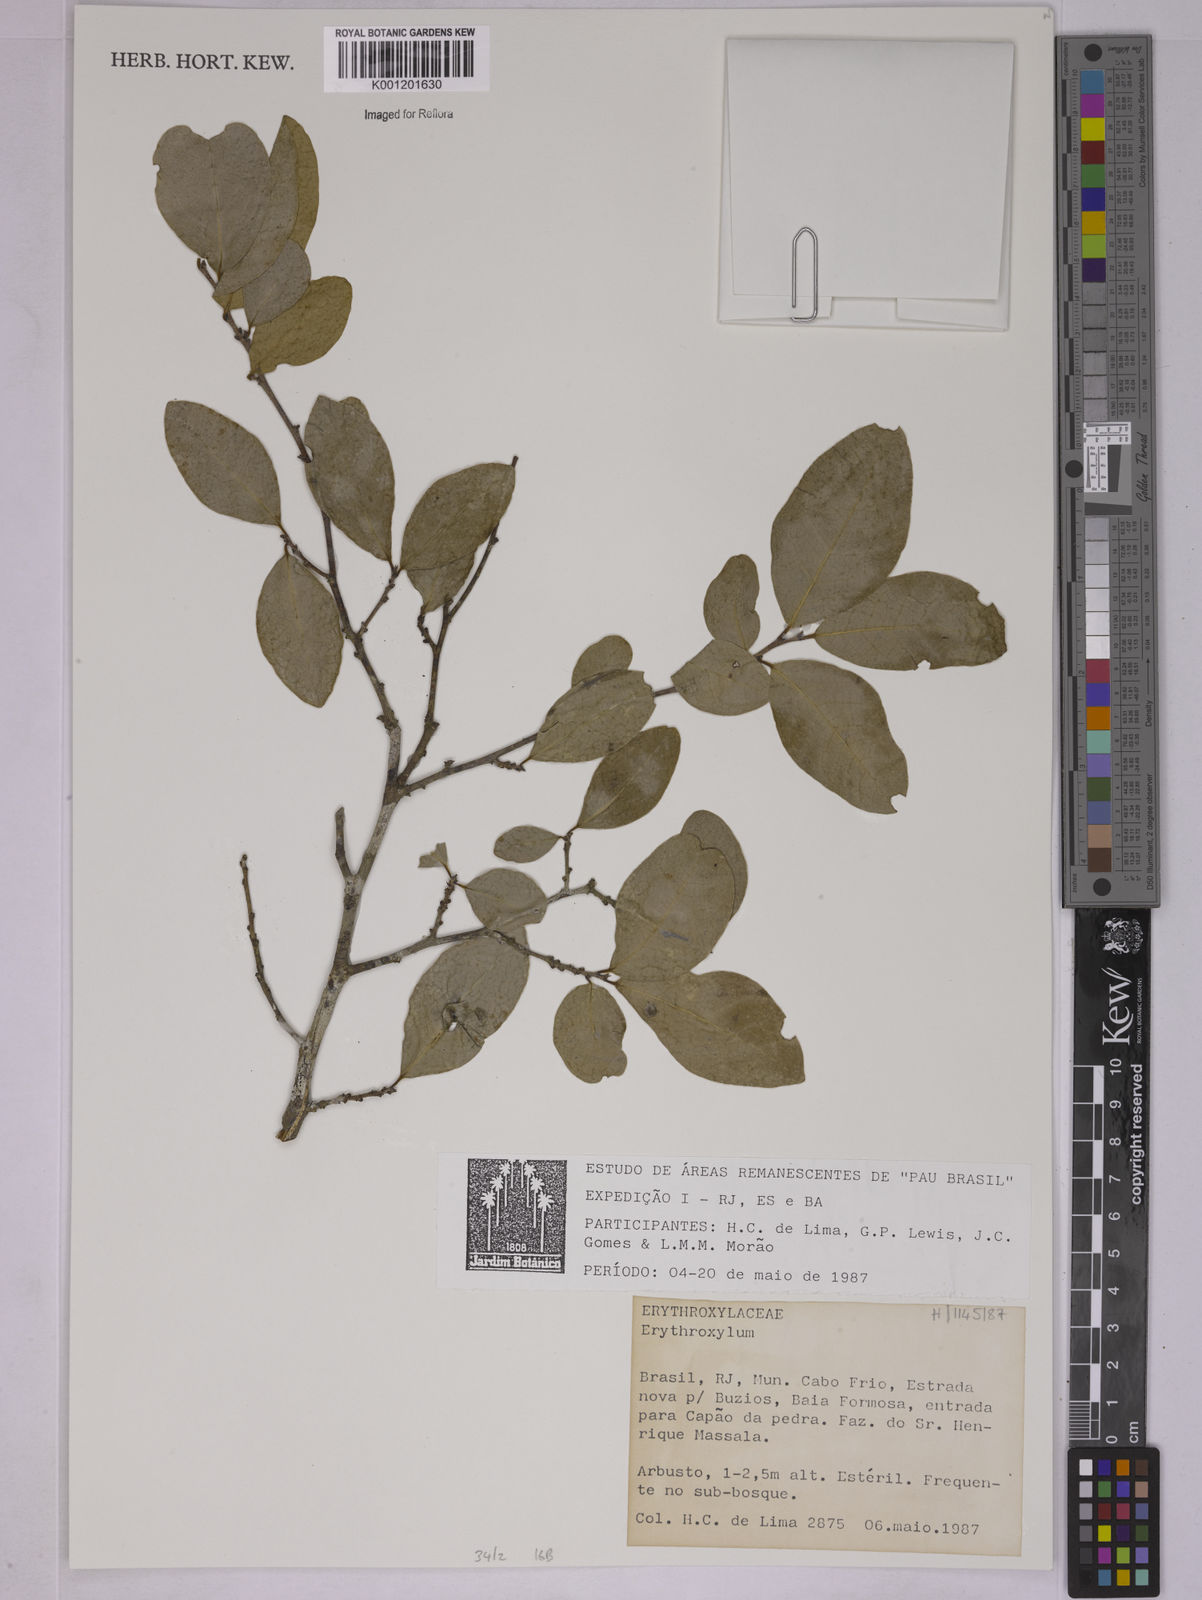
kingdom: Plantae
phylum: Tracheophyta
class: Magnoliopsida
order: Malpighiales
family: Erythroxylaceae
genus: Erythroxylum
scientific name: Erythroxylum
